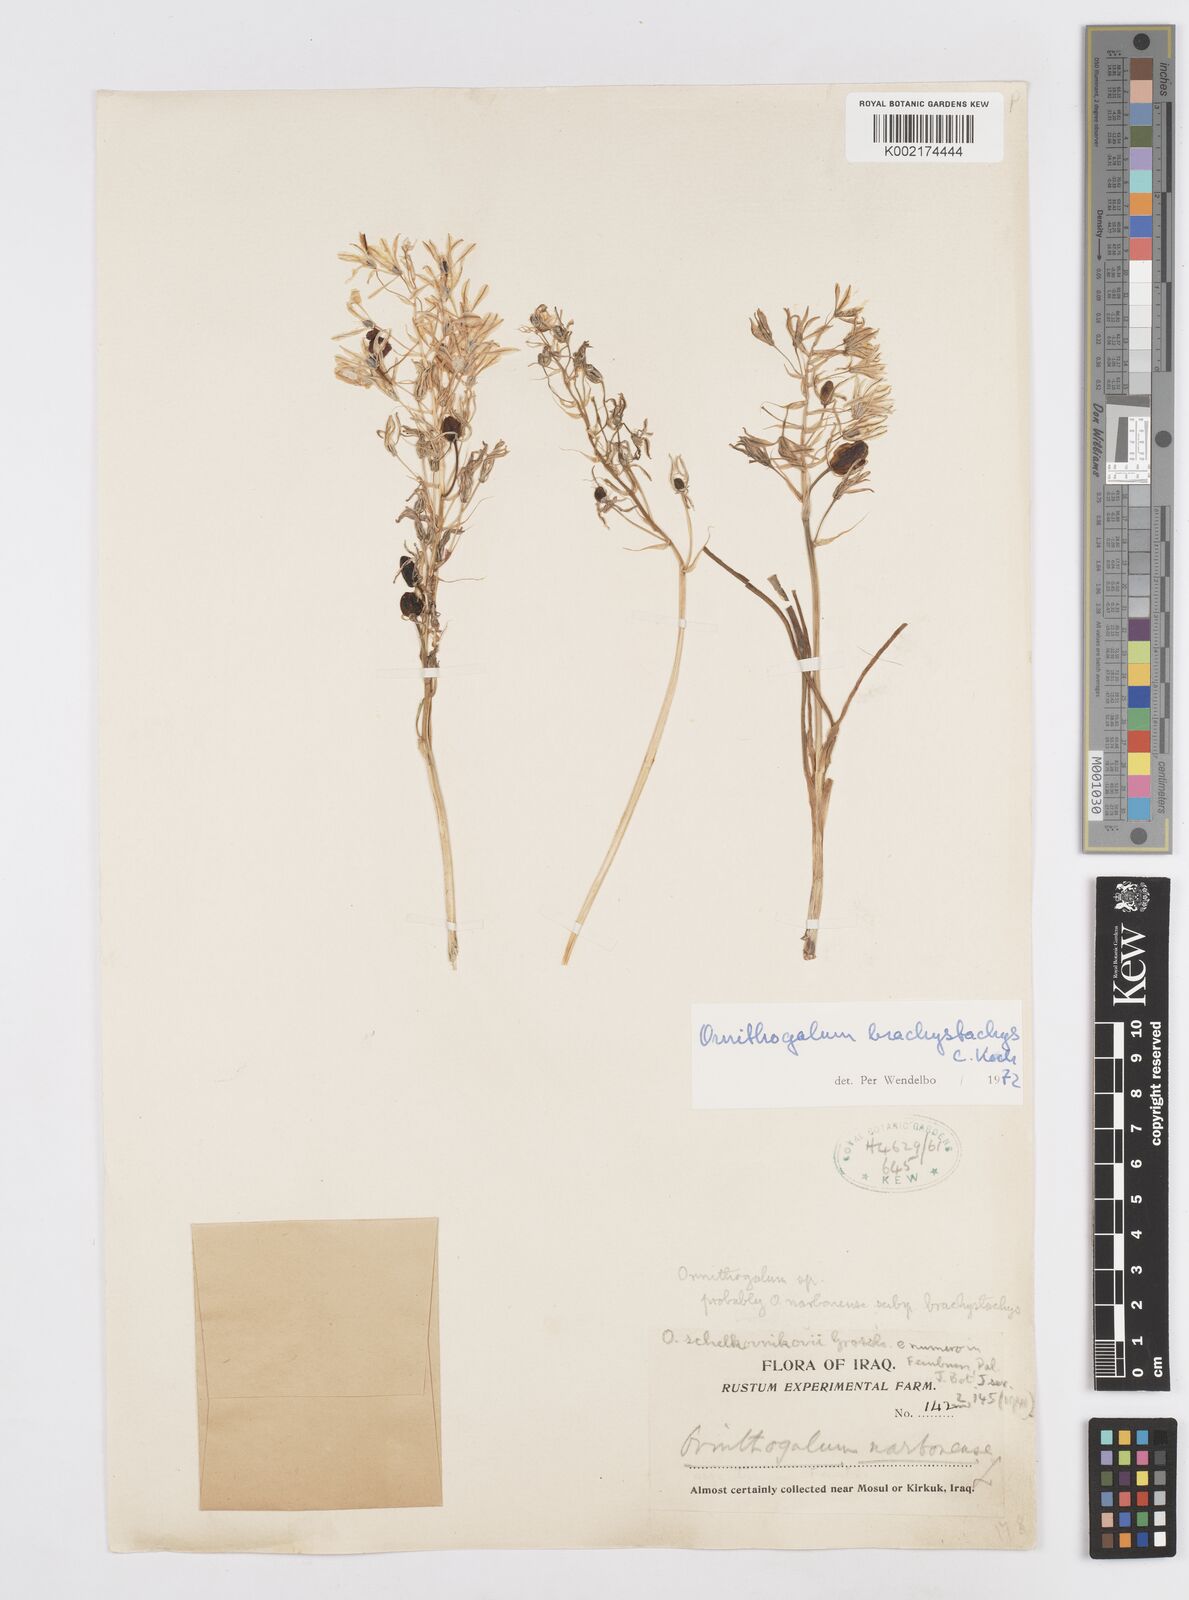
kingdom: Plantae
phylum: Tracheophyta
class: Liliopsida
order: Asparagales
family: Asparagaceae
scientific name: Asparagaceae
